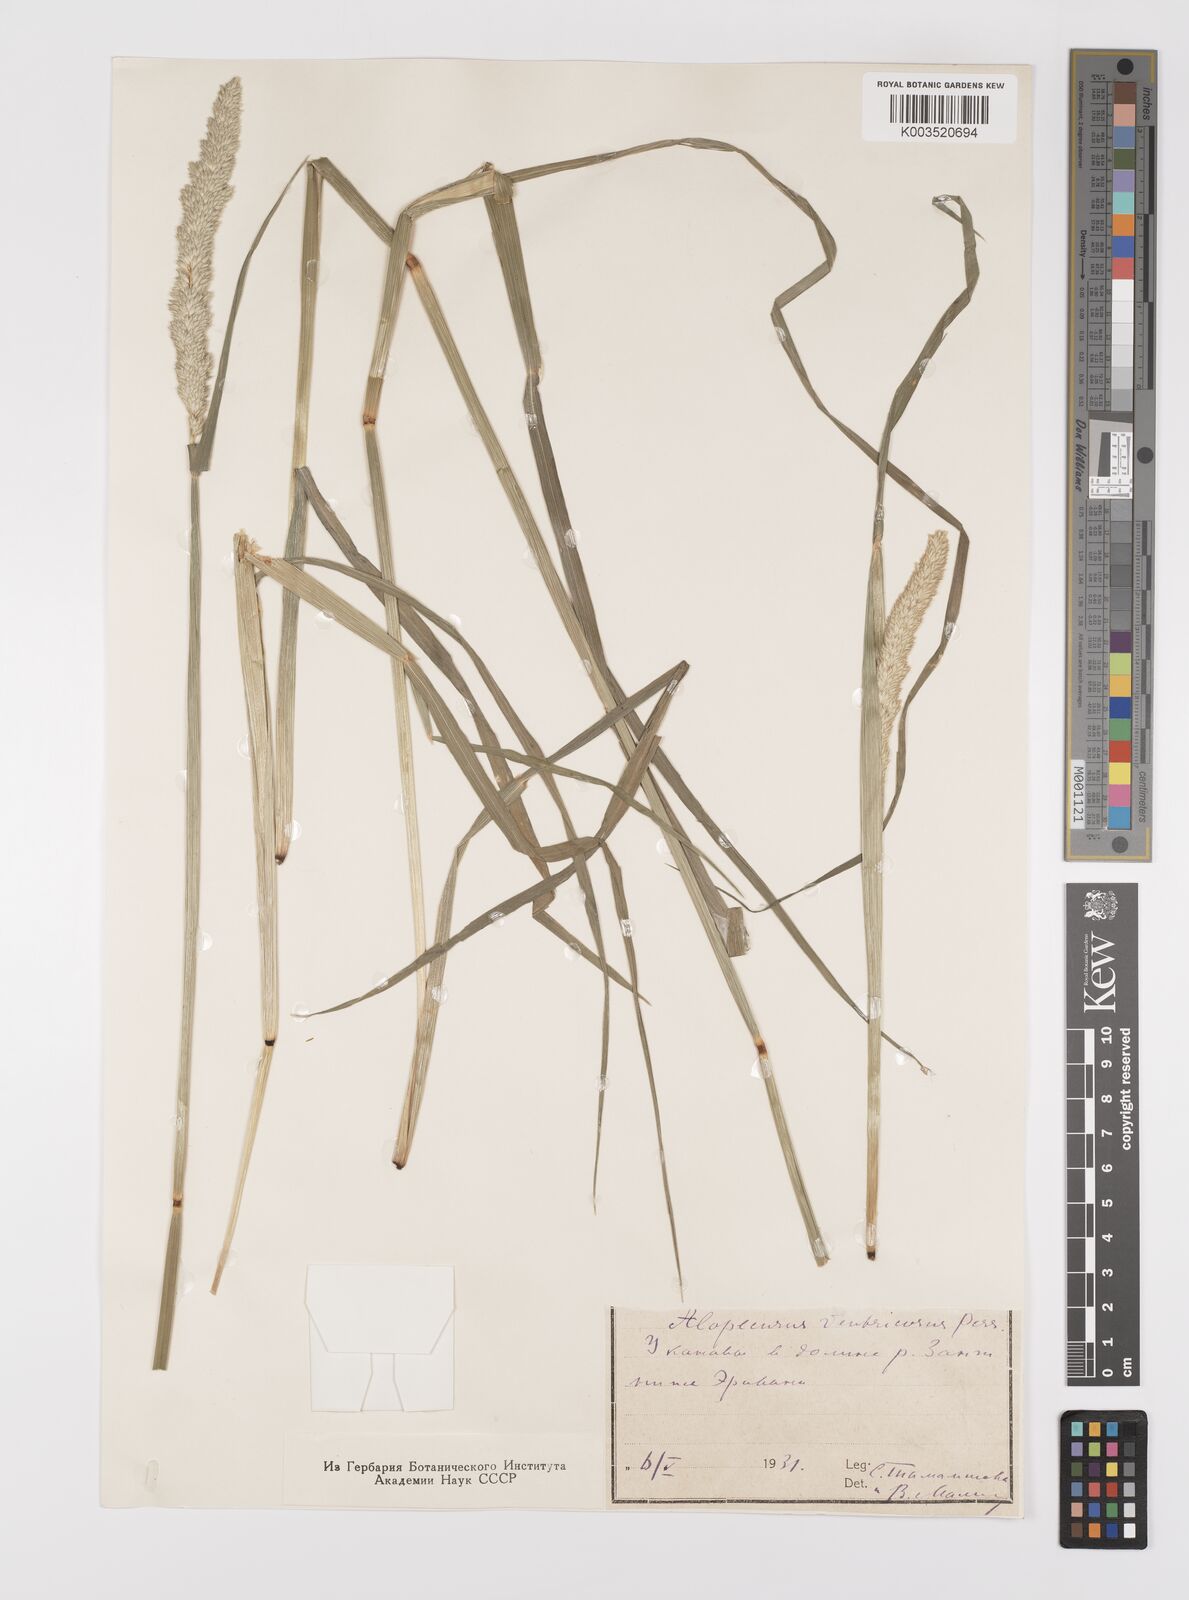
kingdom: Plantae
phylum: Tracheophyta
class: Liliopsida
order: Poales
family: Poaceae
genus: Alopecurus
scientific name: Alopecurus arundinaceus
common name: Creeping meadow foxtail
